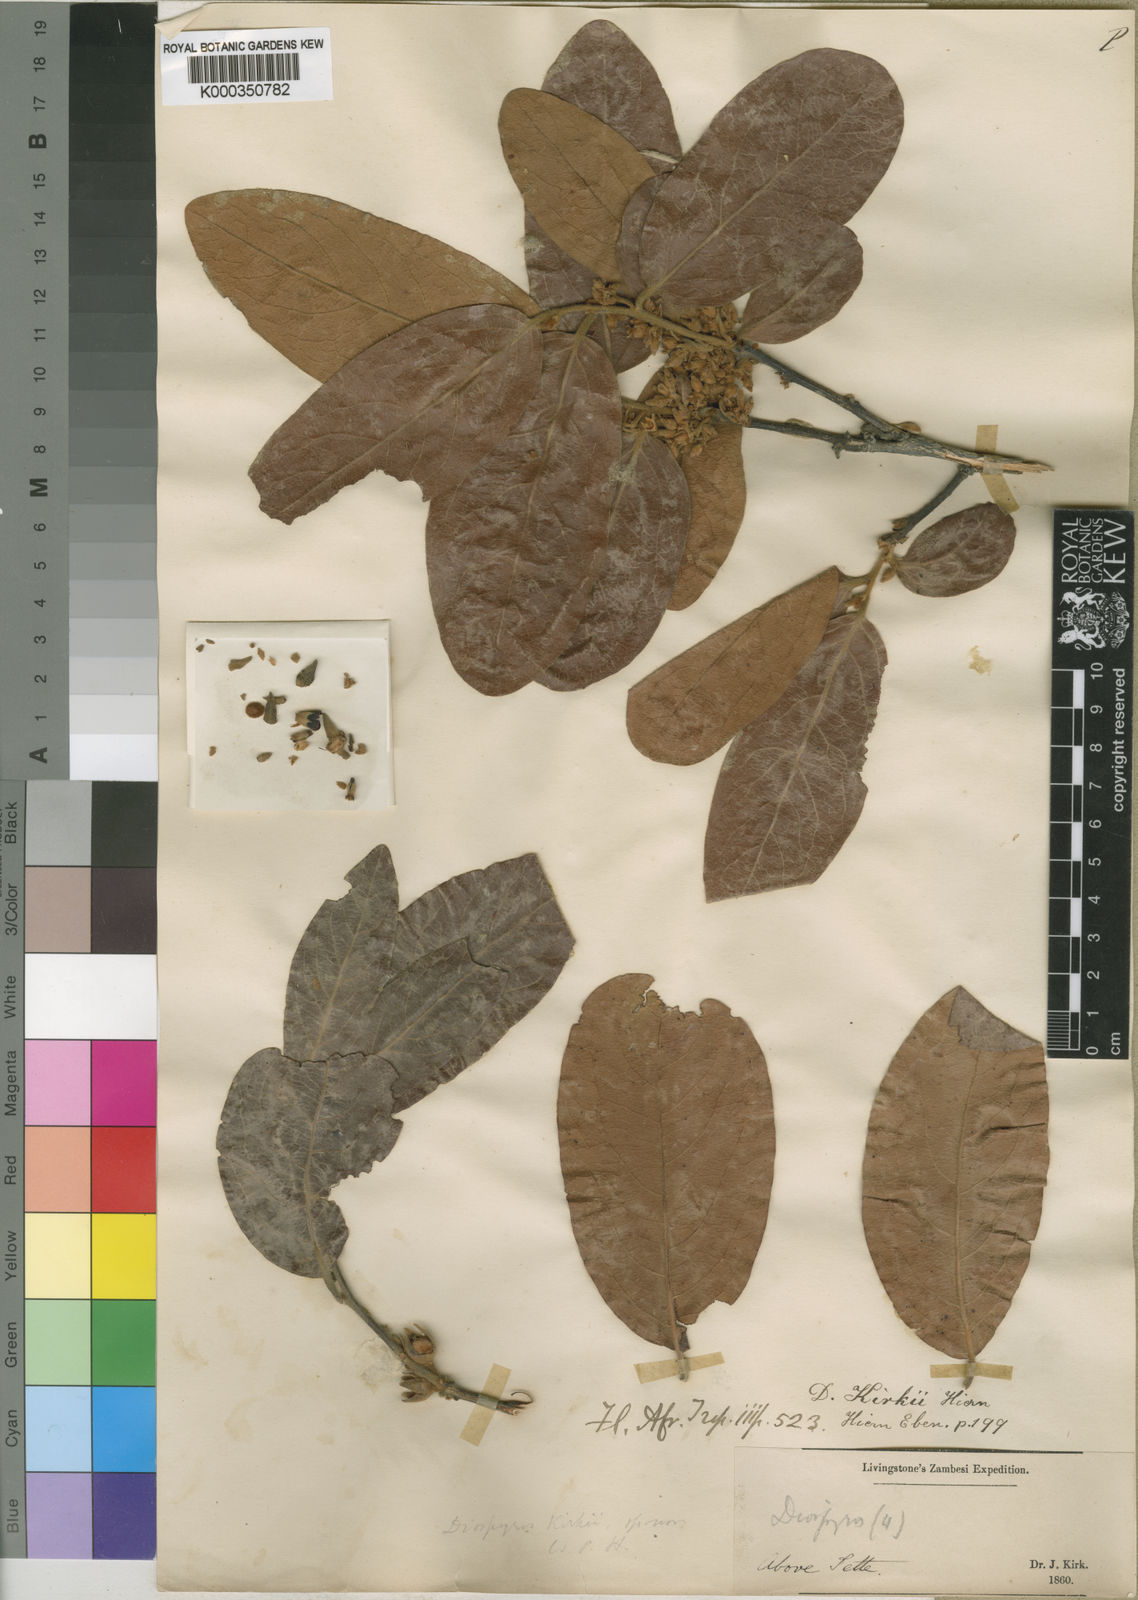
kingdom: Plantae
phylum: Tracheophyta
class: Magnoliopsida
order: Ericales
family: Ebenaceae
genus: Diospyros
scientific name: Diospyros kirkii
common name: Large-leaved jackal berry
